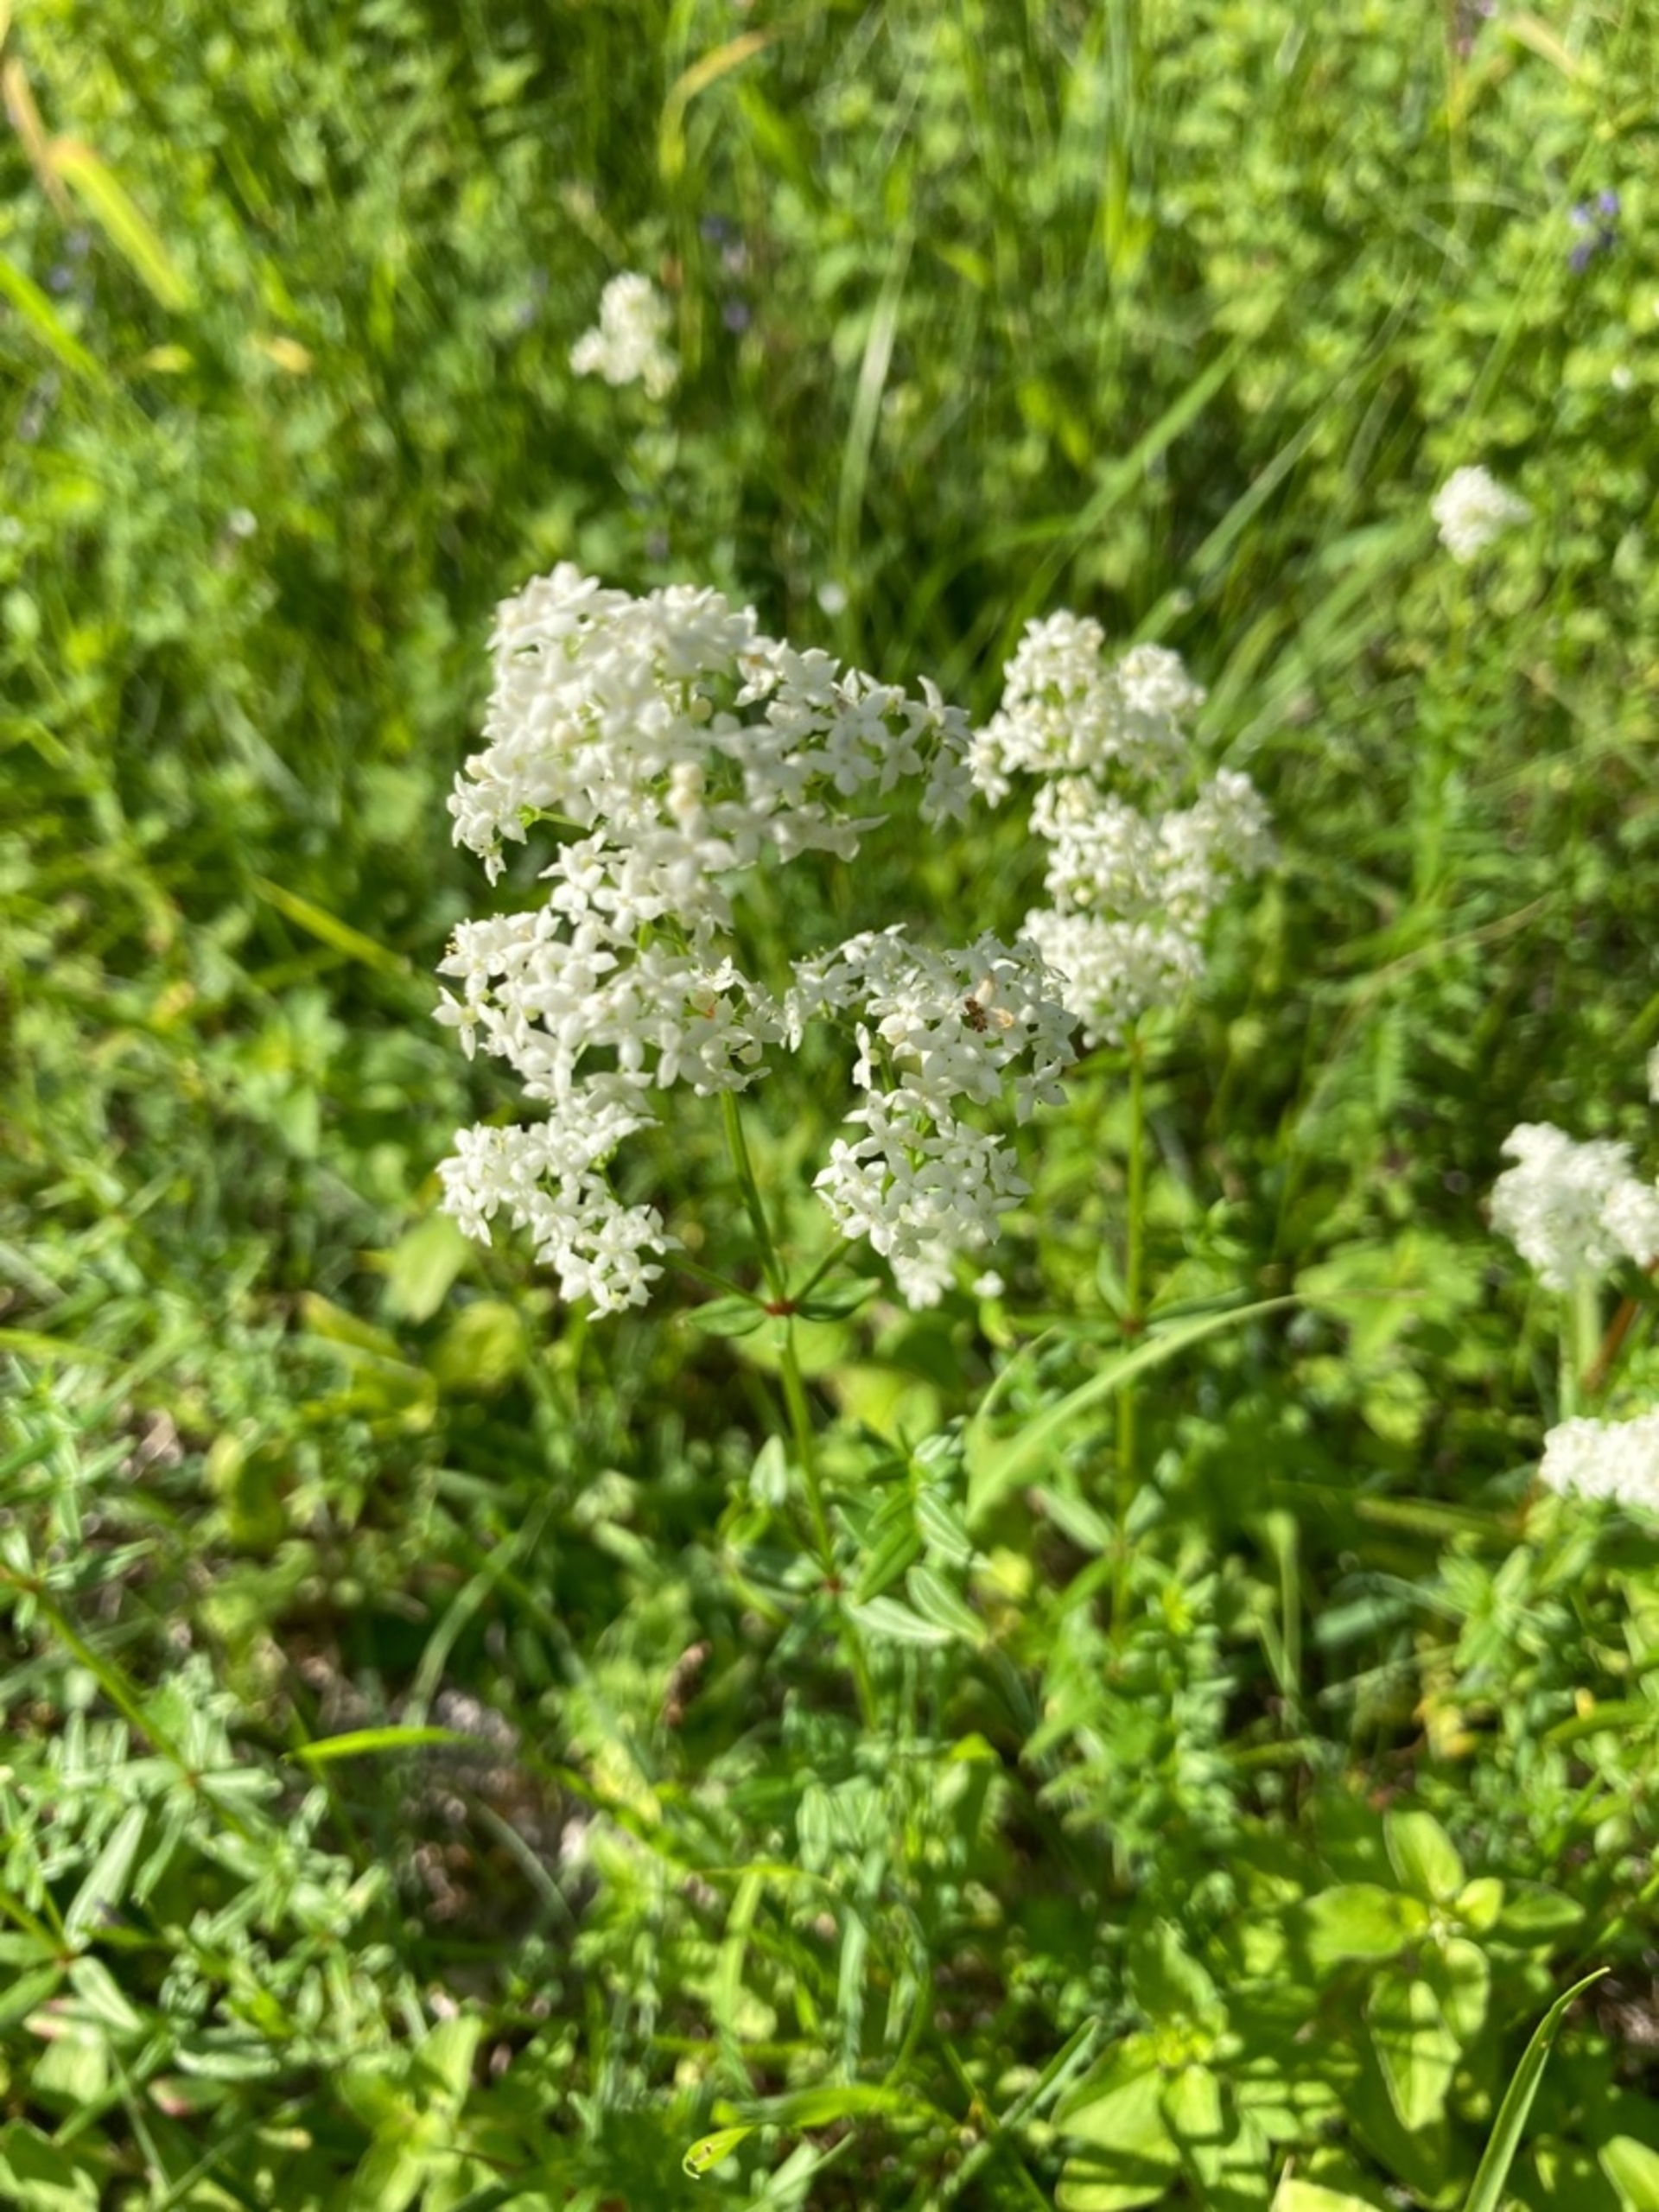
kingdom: Plantae
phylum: Tracheophyta
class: Magnoliopsida
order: Gentianales
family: Rubiaceae
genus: Galium
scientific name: Galium boreale
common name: Trenervet snerre
